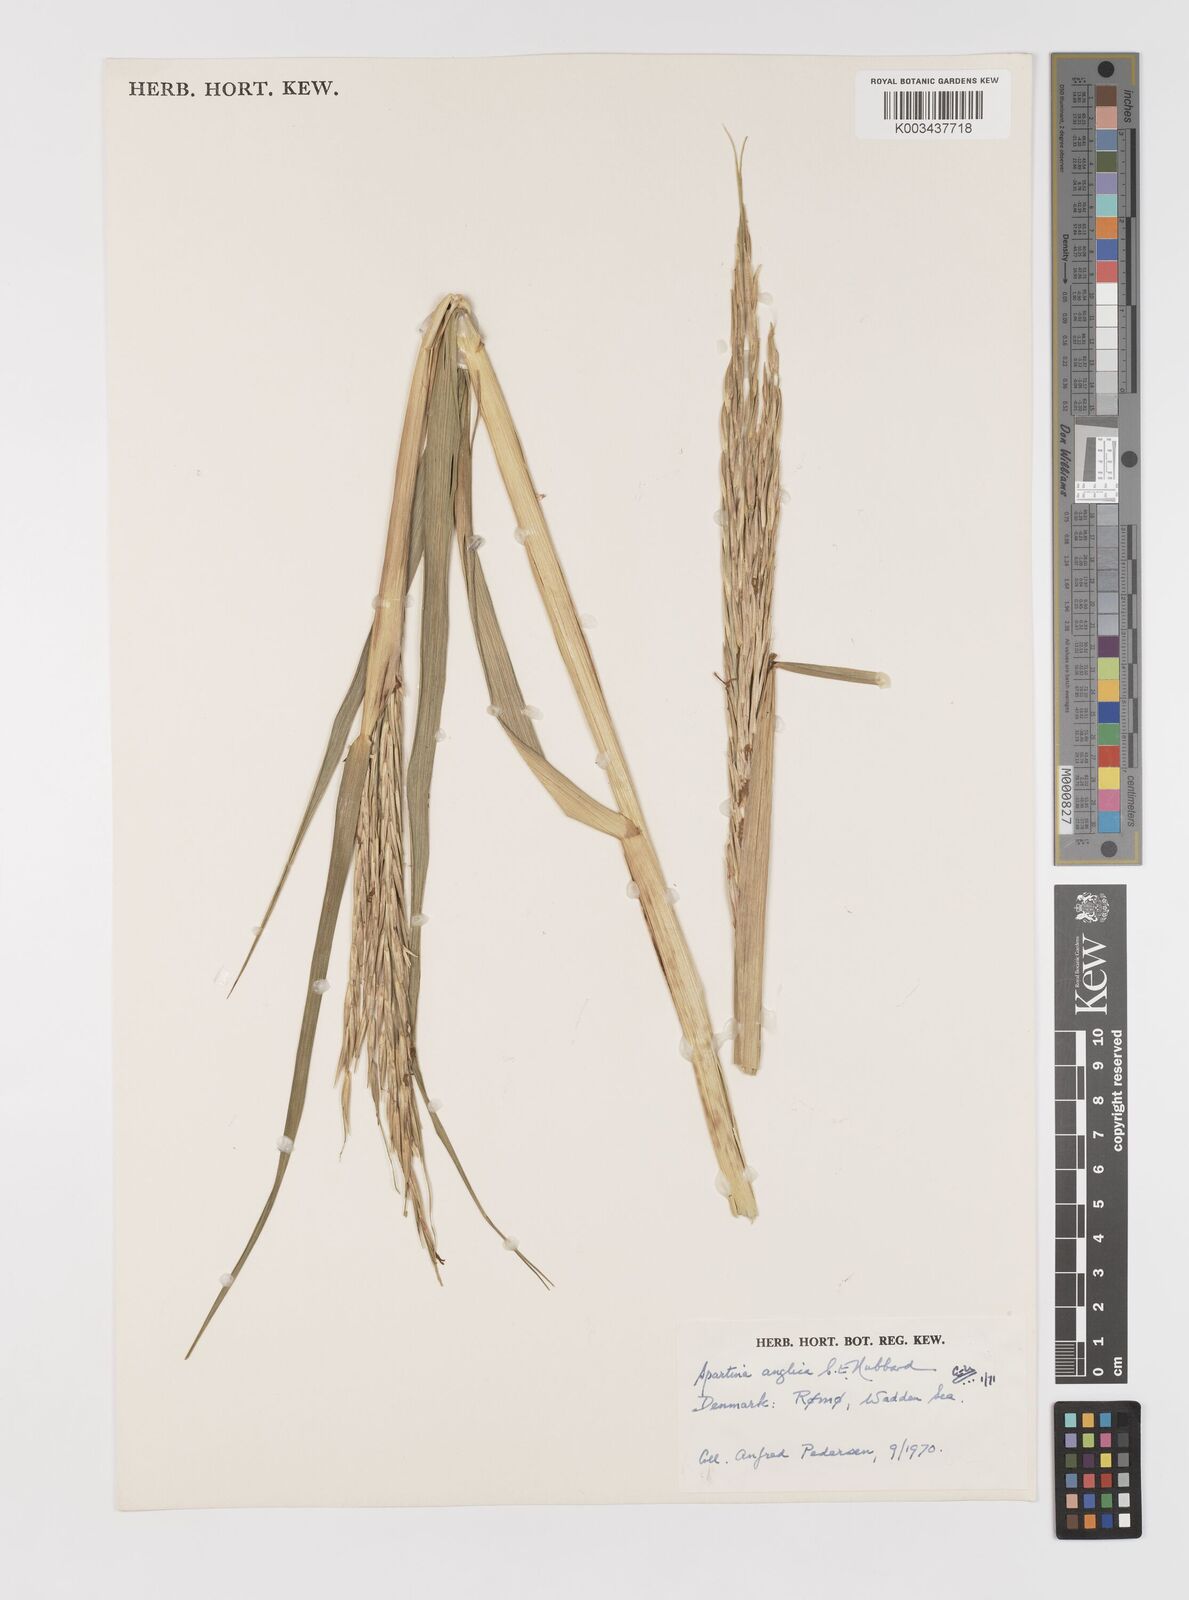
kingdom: Plantae
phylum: Tracheophyta
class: Liliopsida
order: Poales
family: Poaceae
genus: Sporobolus
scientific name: Sporobolus anglicus
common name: English cordgrass
